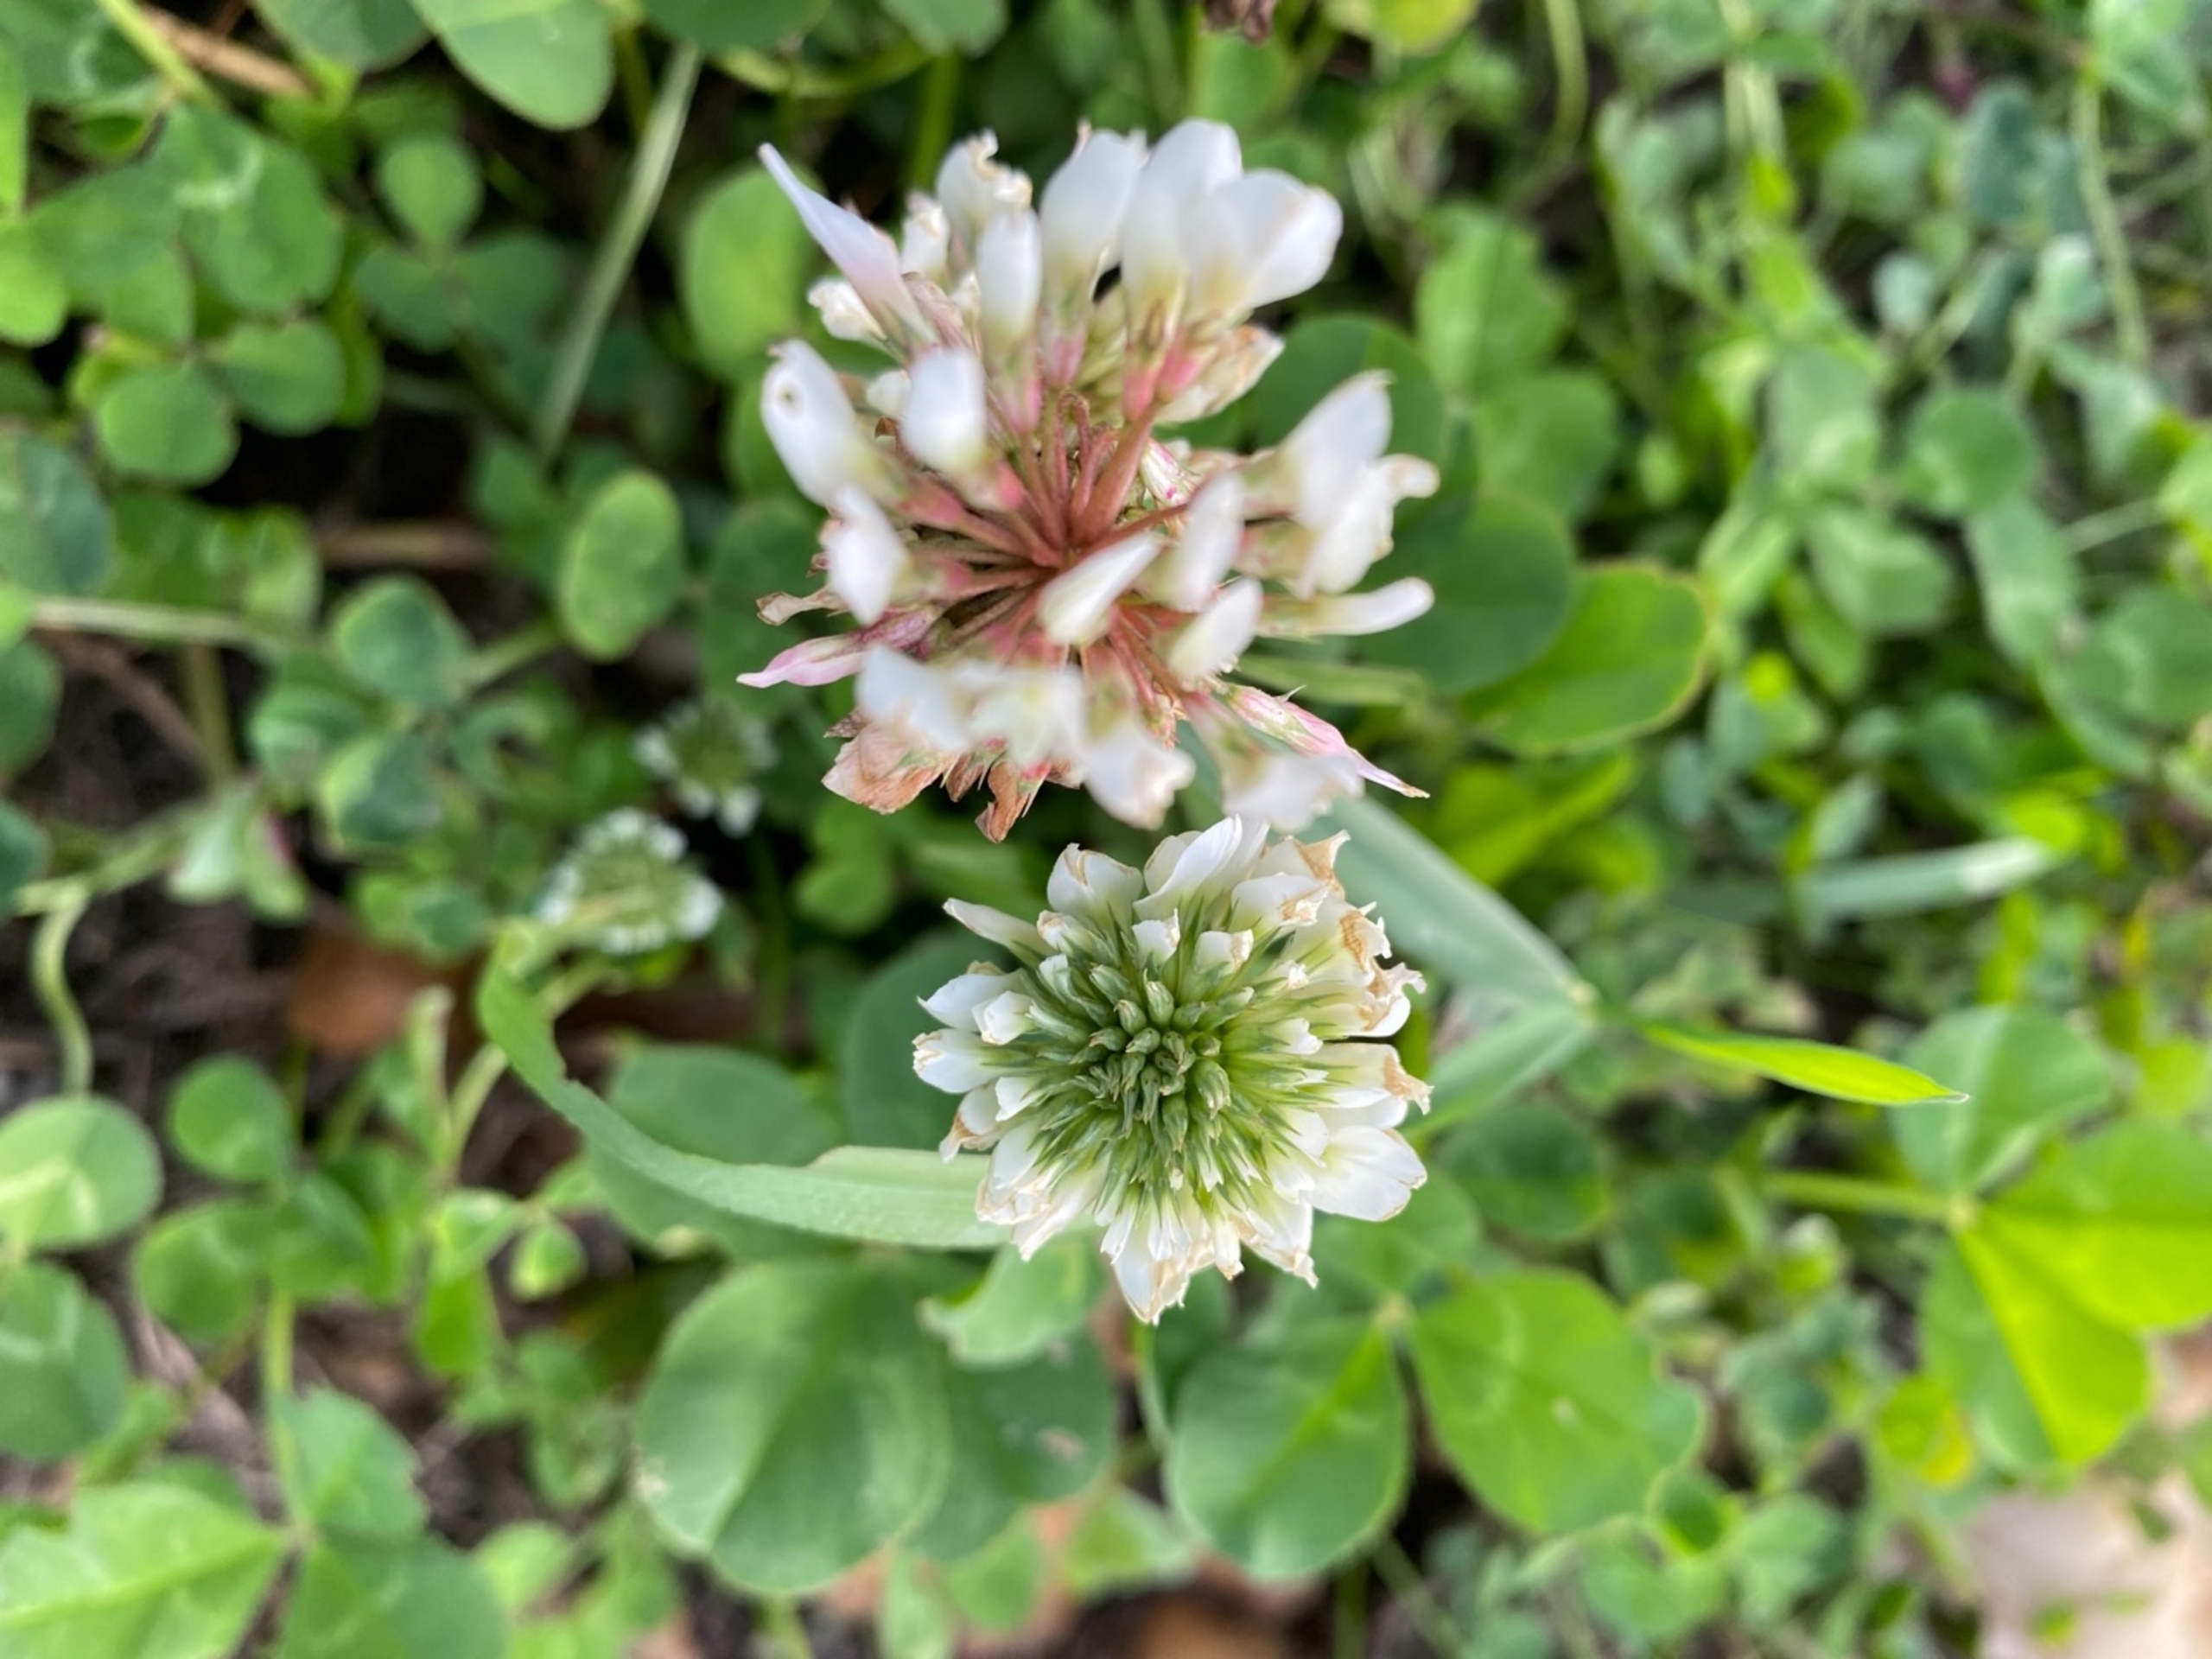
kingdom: Plantae
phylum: Tracheophyta
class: Magnoliopsida
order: Fabales
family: Fabaceae
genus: Trifolium
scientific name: Trifolium repens
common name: Hvid-kløver
